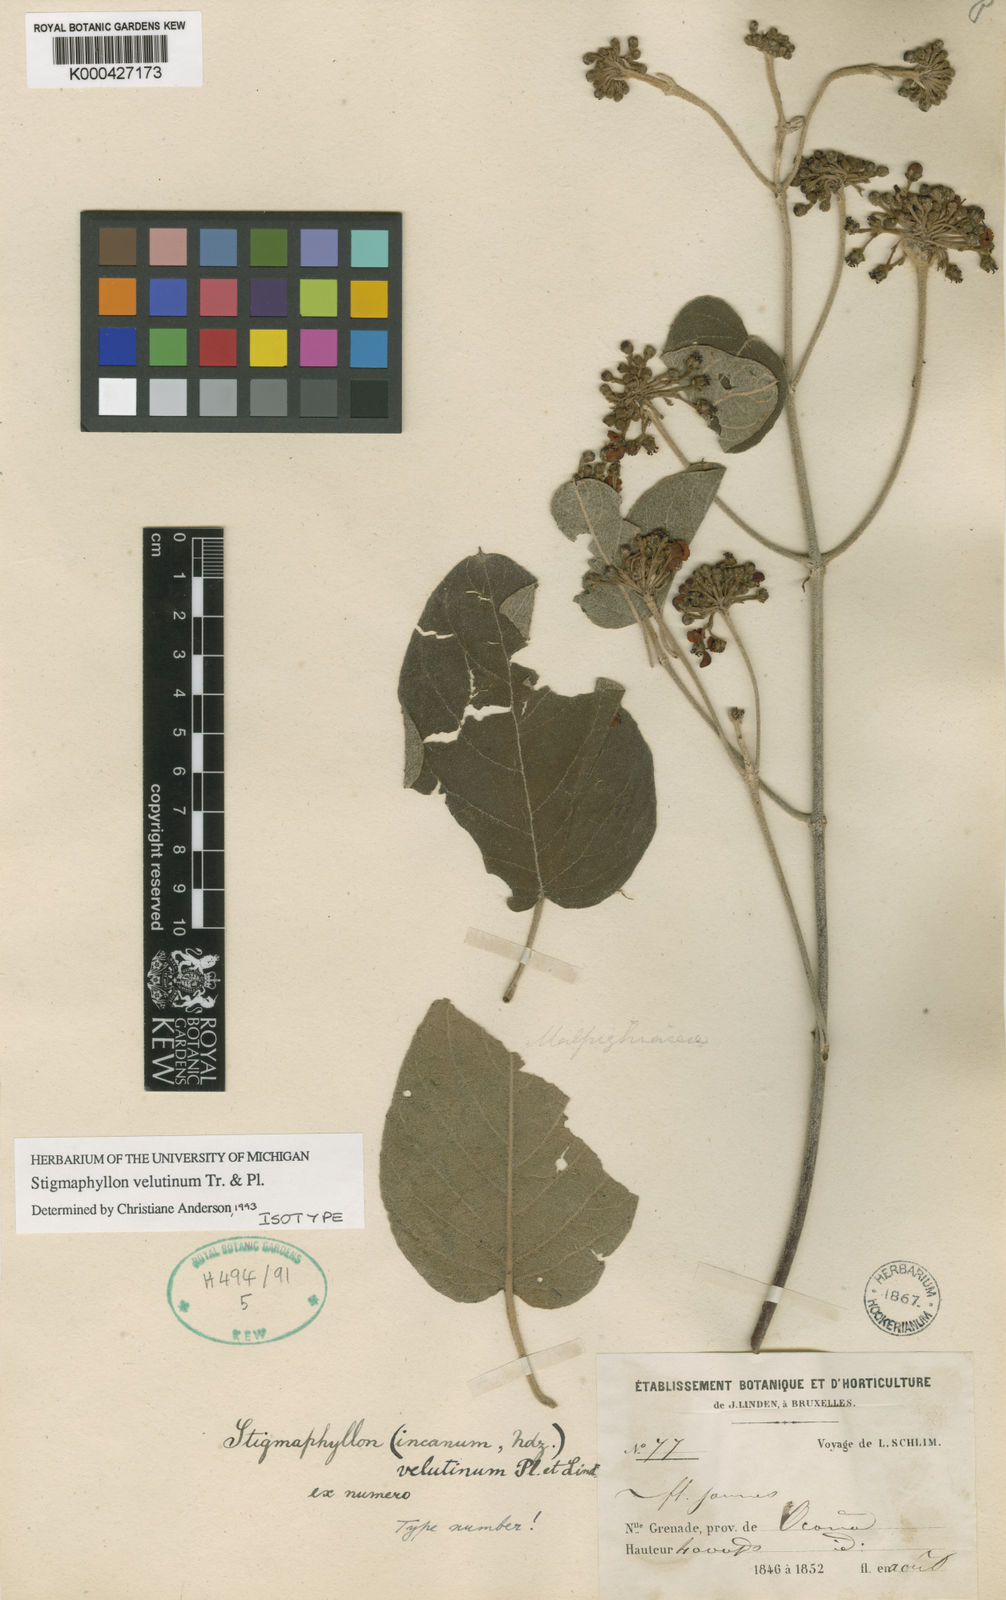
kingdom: Plantae
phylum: Tracheophyta
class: Magnoliopsida
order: Malpighiales
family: Malpighiaceae
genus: Stigmaphyllon
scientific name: Stigmaphyllon velutinum
